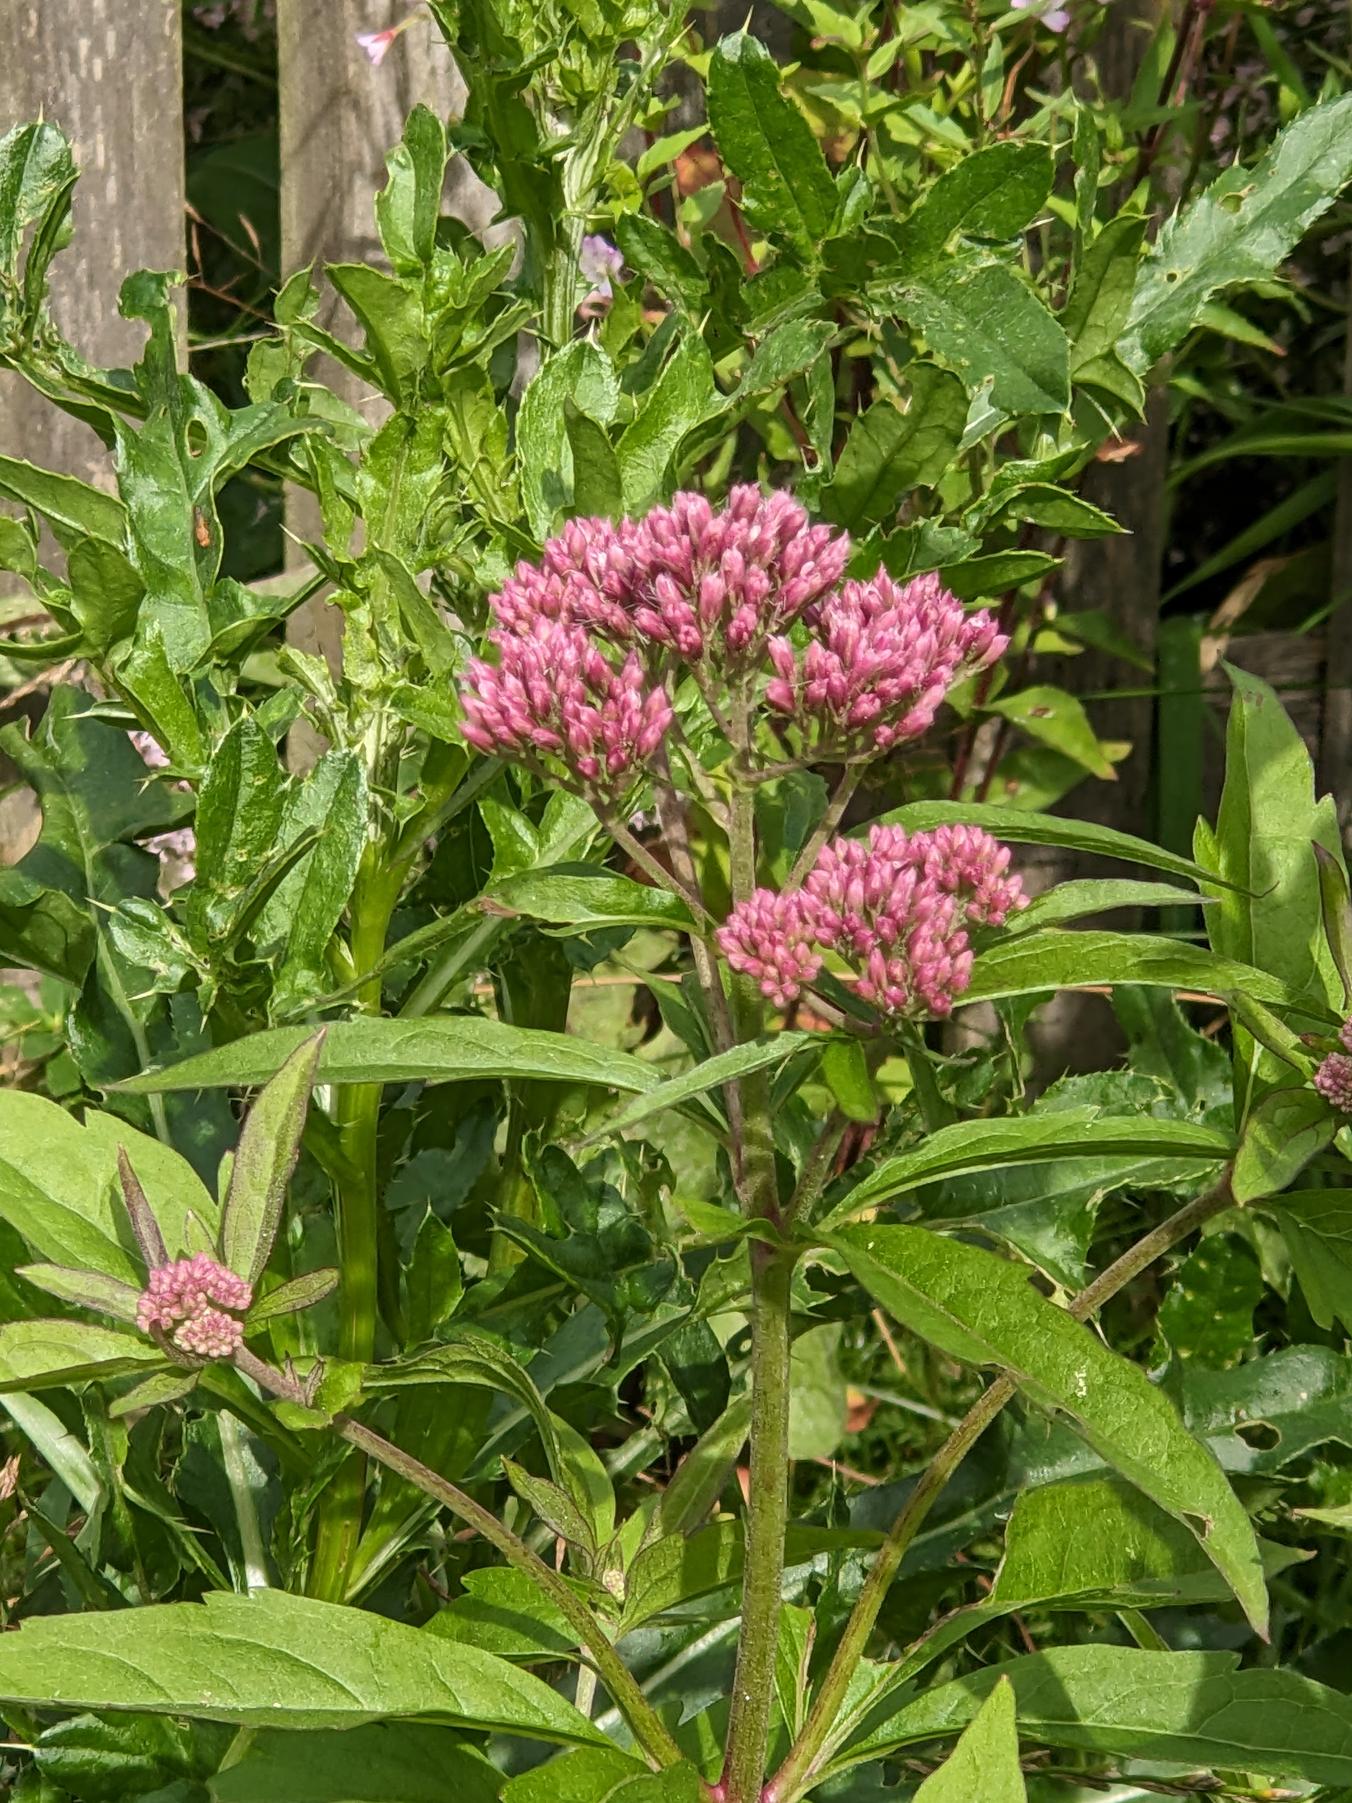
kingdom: Plantae
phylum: Tracheophyta
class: Magnoliopsida
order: Asterales
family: Asteraceae
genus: Eupatorium
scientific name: Eupatorium cannabinum
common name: Hjortetrøst
